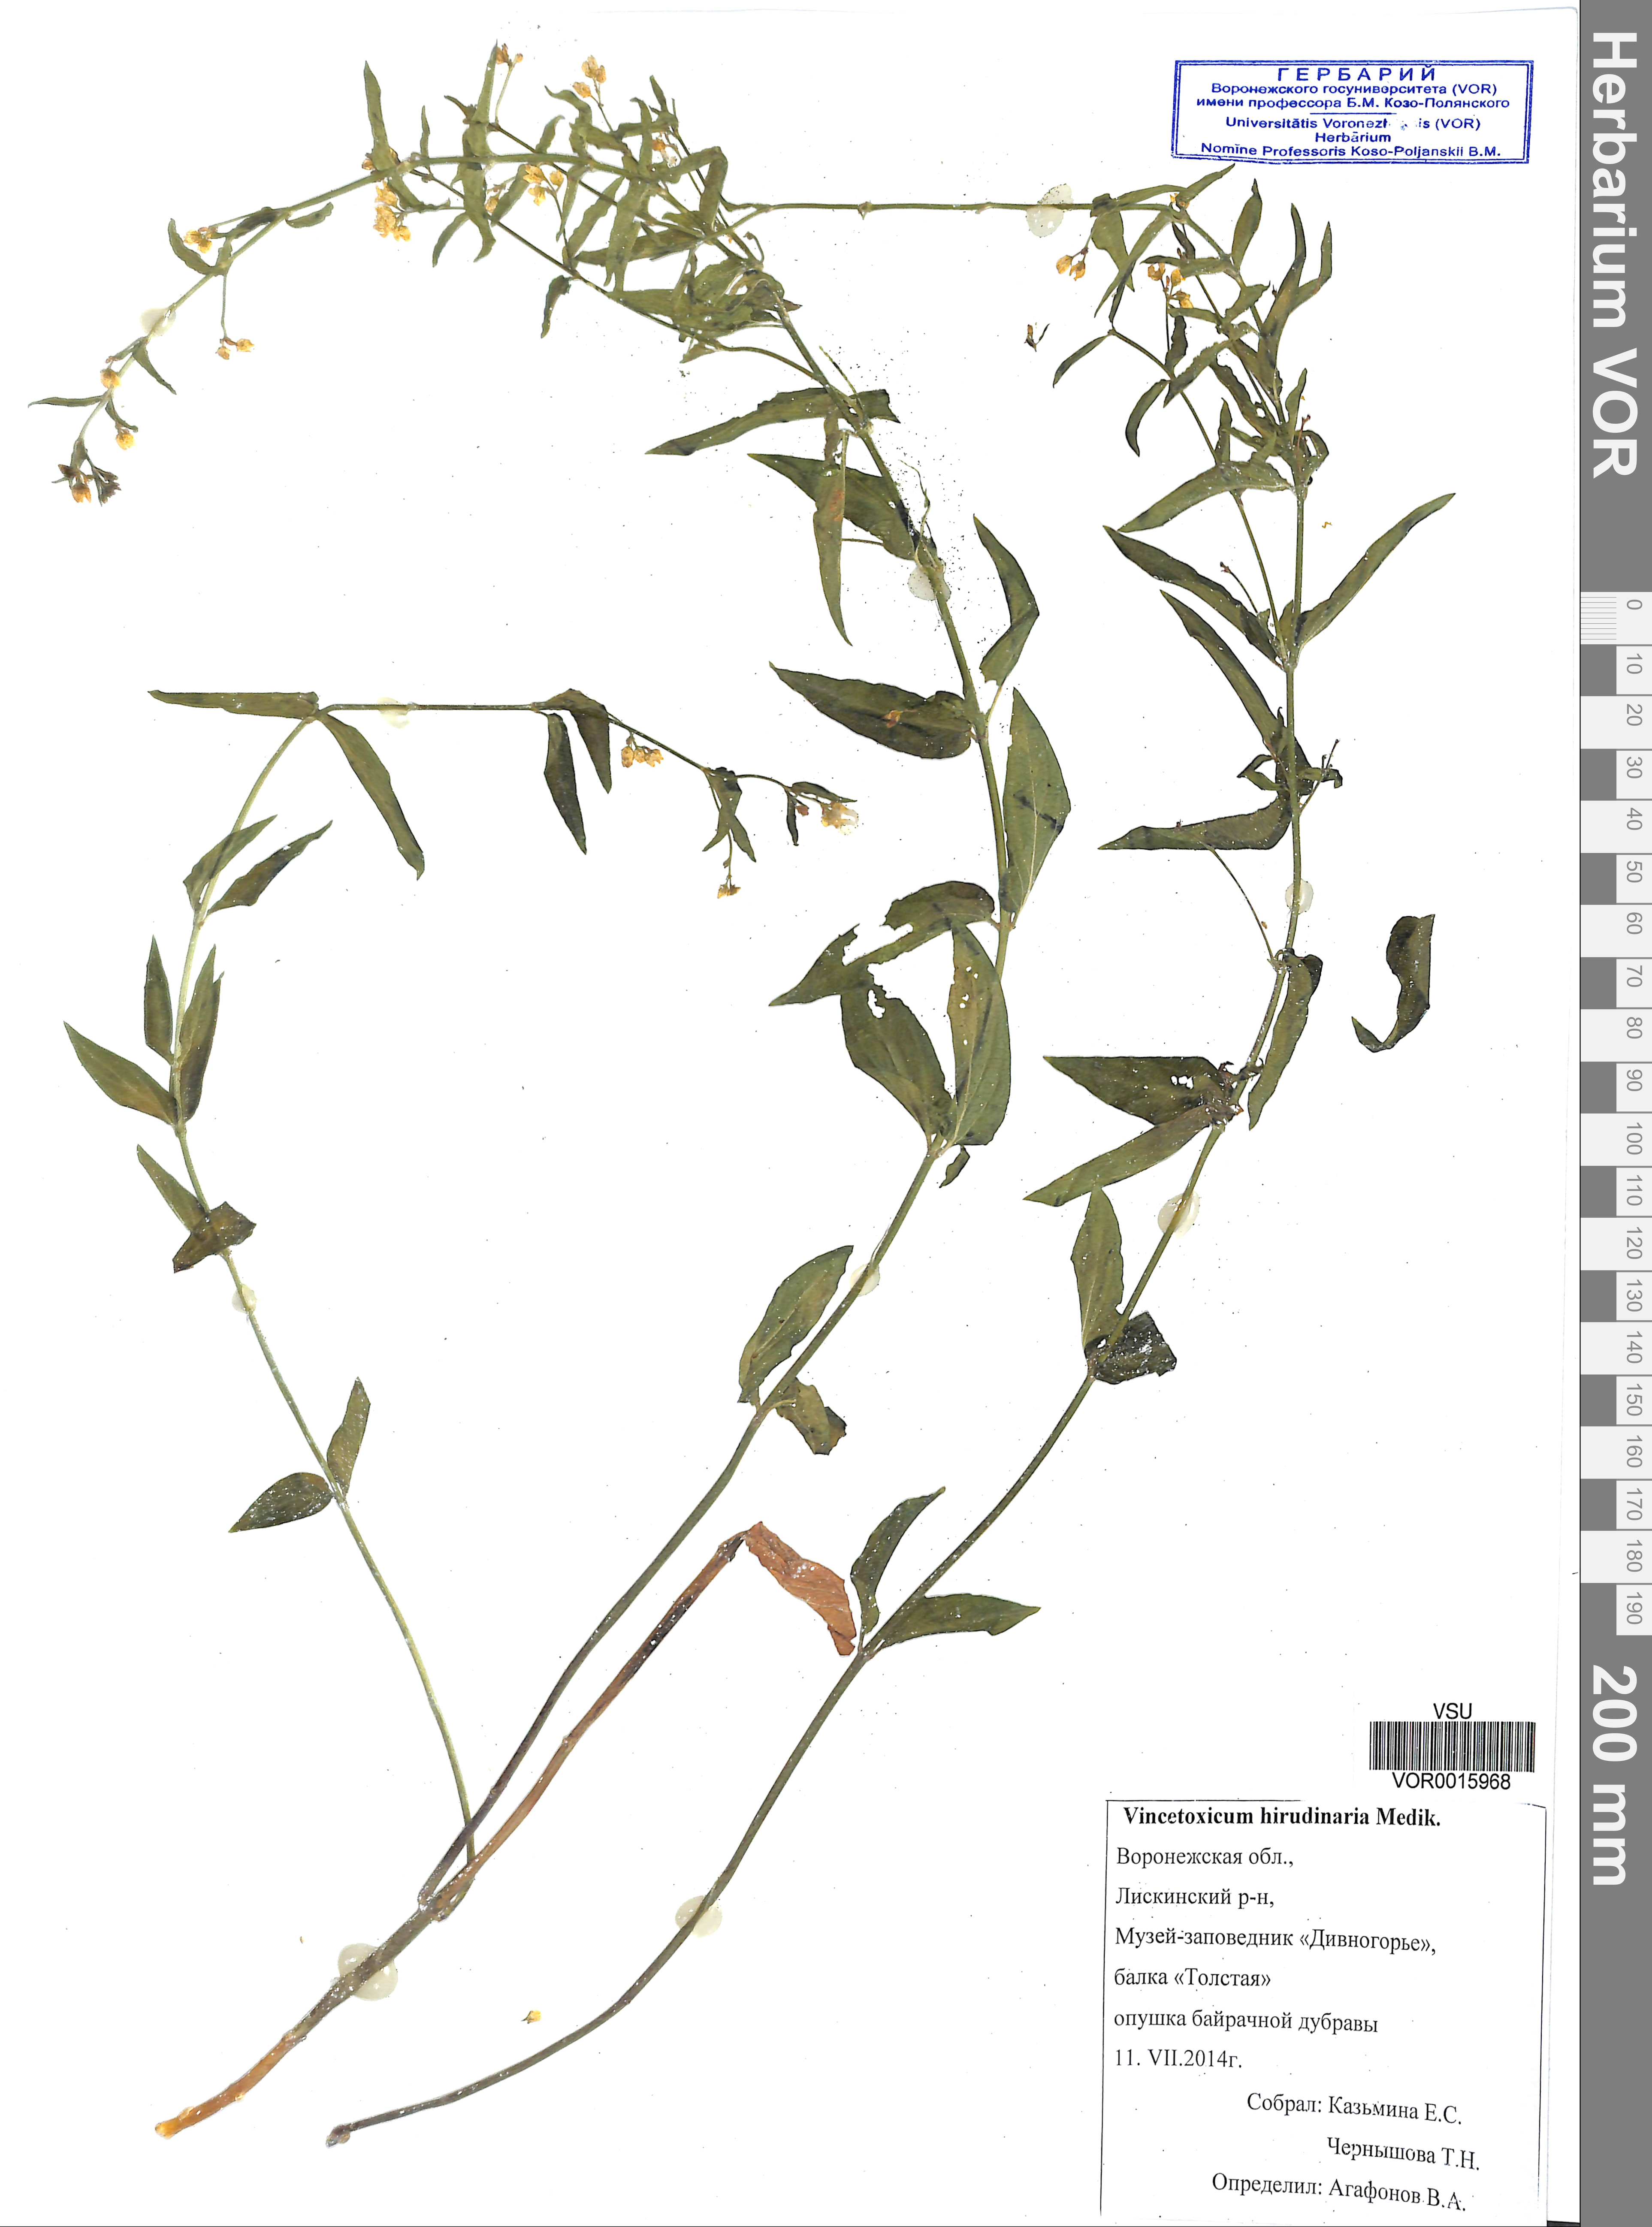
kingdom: Plantae
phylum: Tracheophyta
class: Magnoliopsida
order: Gentianales
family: Apocynaceae
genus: Vincetoxicum
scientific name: Vincetoxicum hirundinaria
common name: White swallowwort
